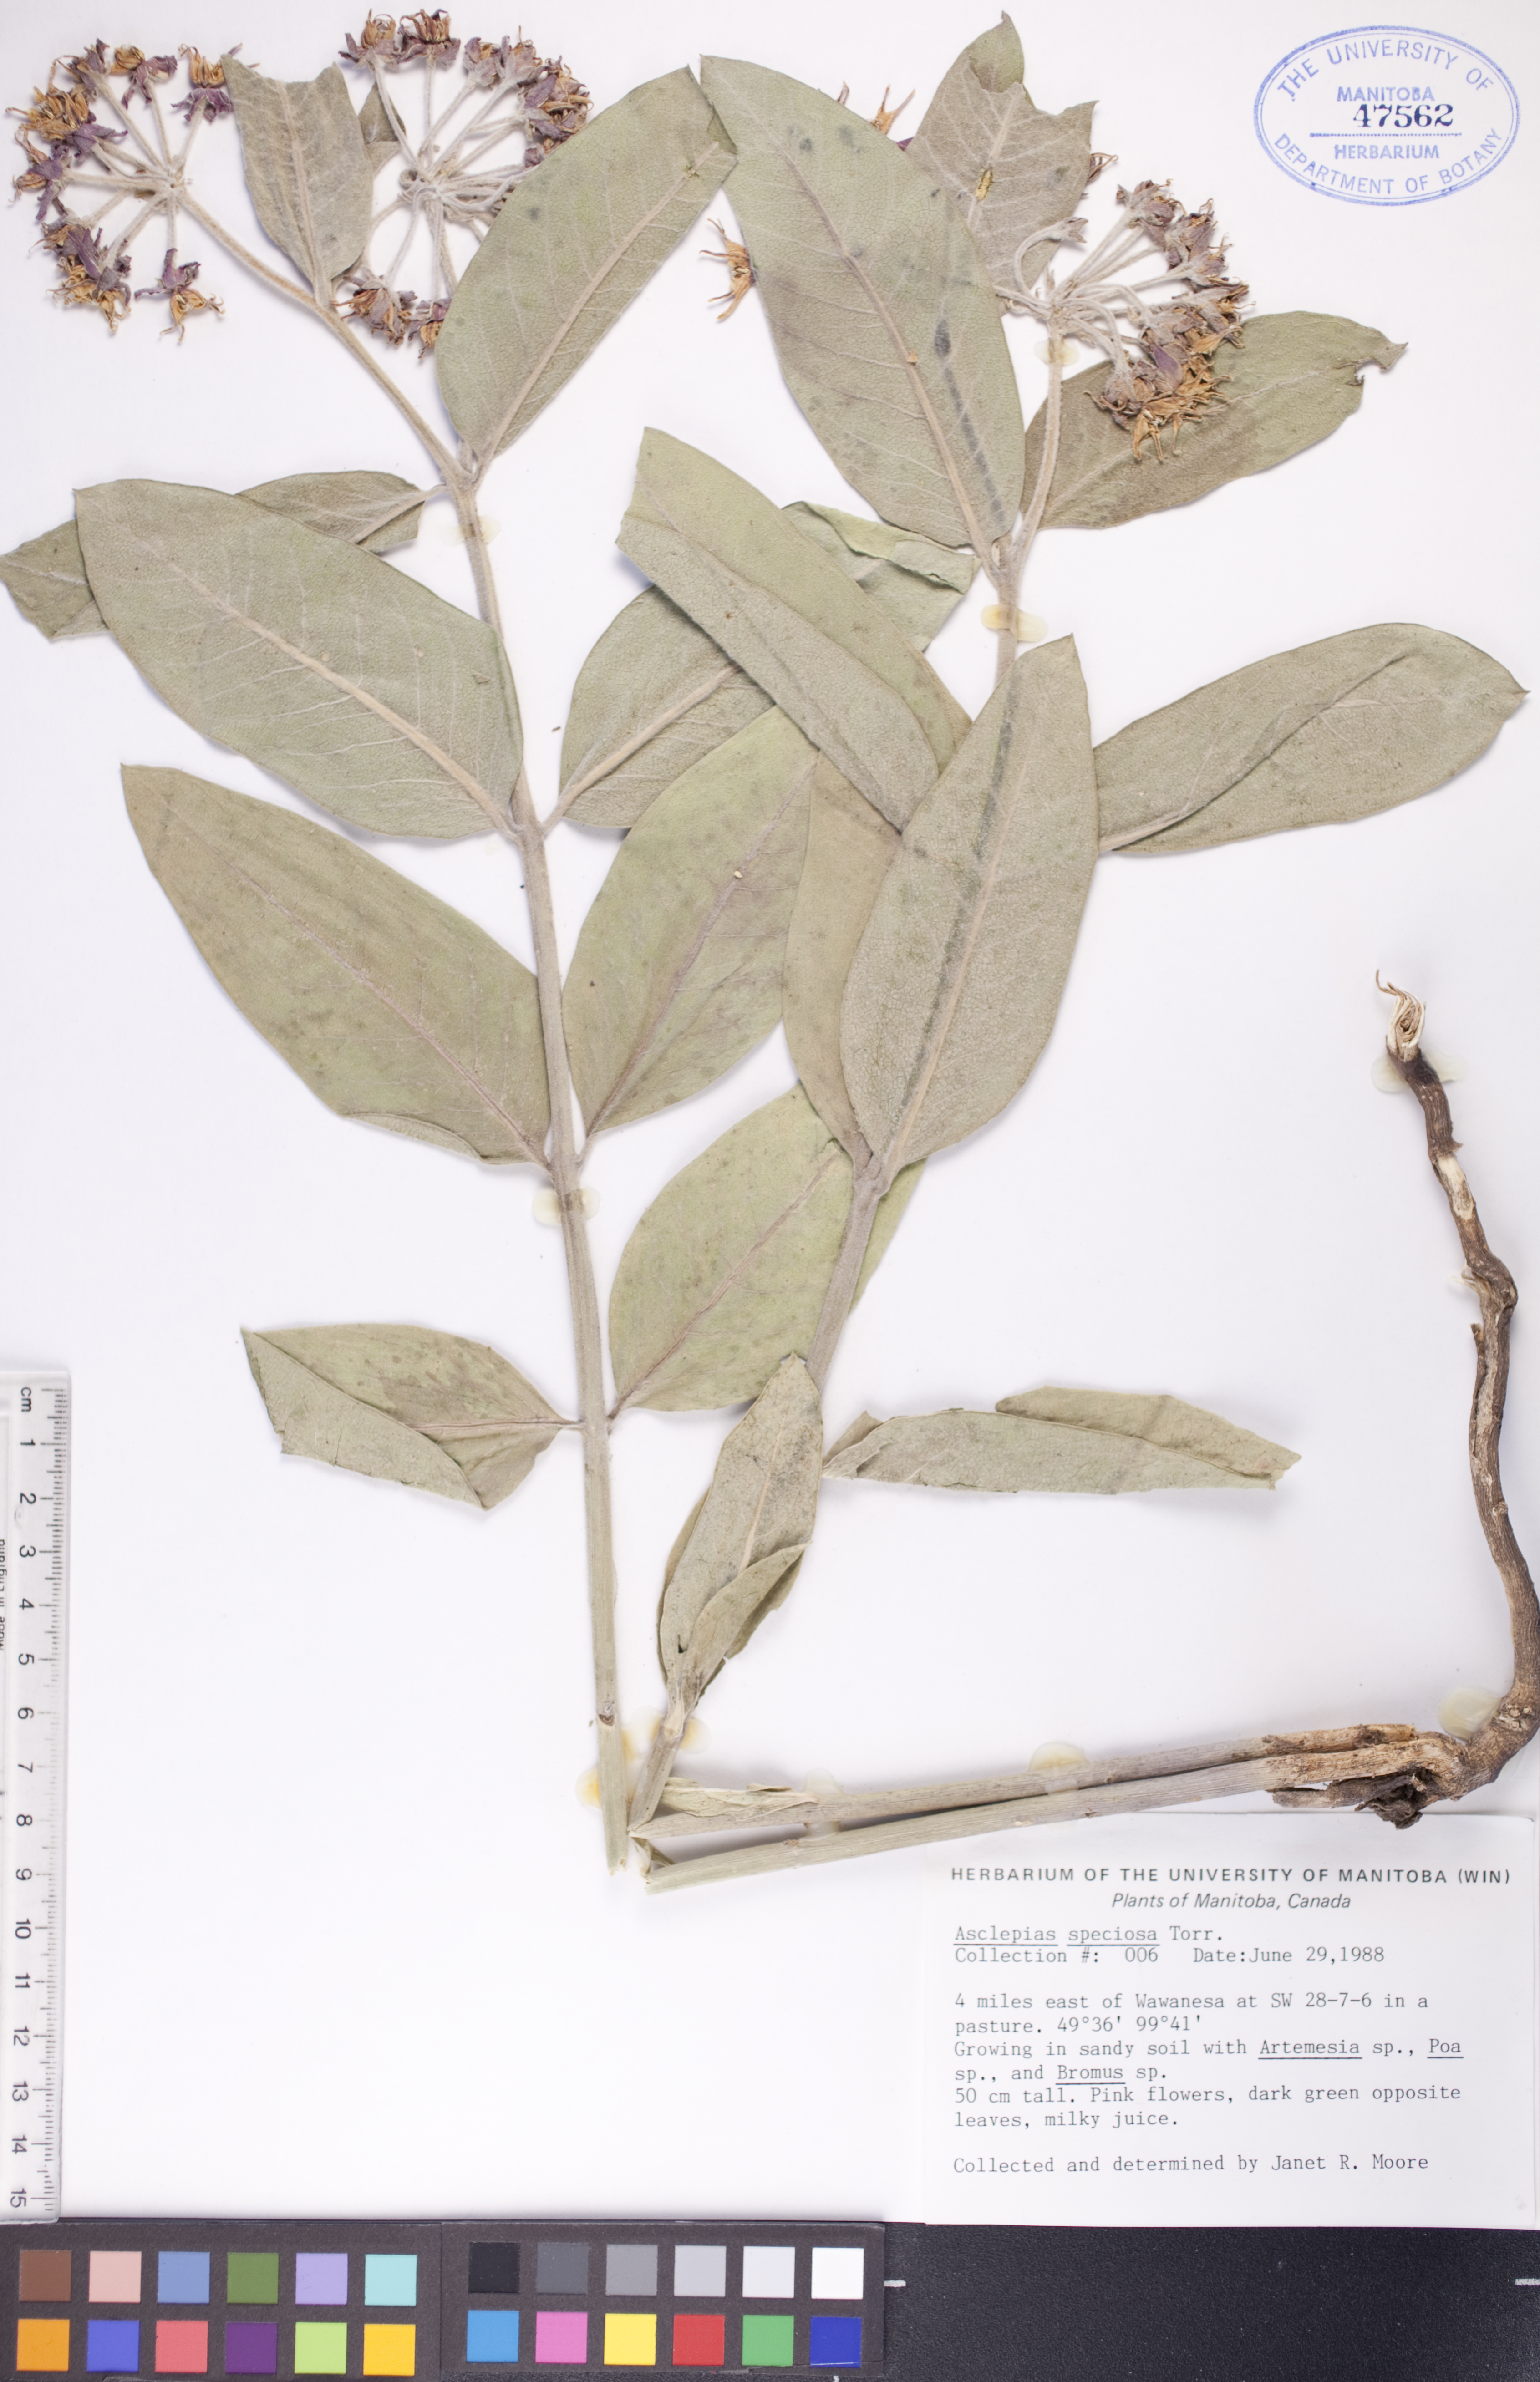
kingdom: Plantae
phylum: Tracheophyta
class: Magnoliopsida
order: Gentianales
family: Apocynaceae
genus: Asclepias
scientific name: Asclepias speciosa
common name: Showy milkweed
